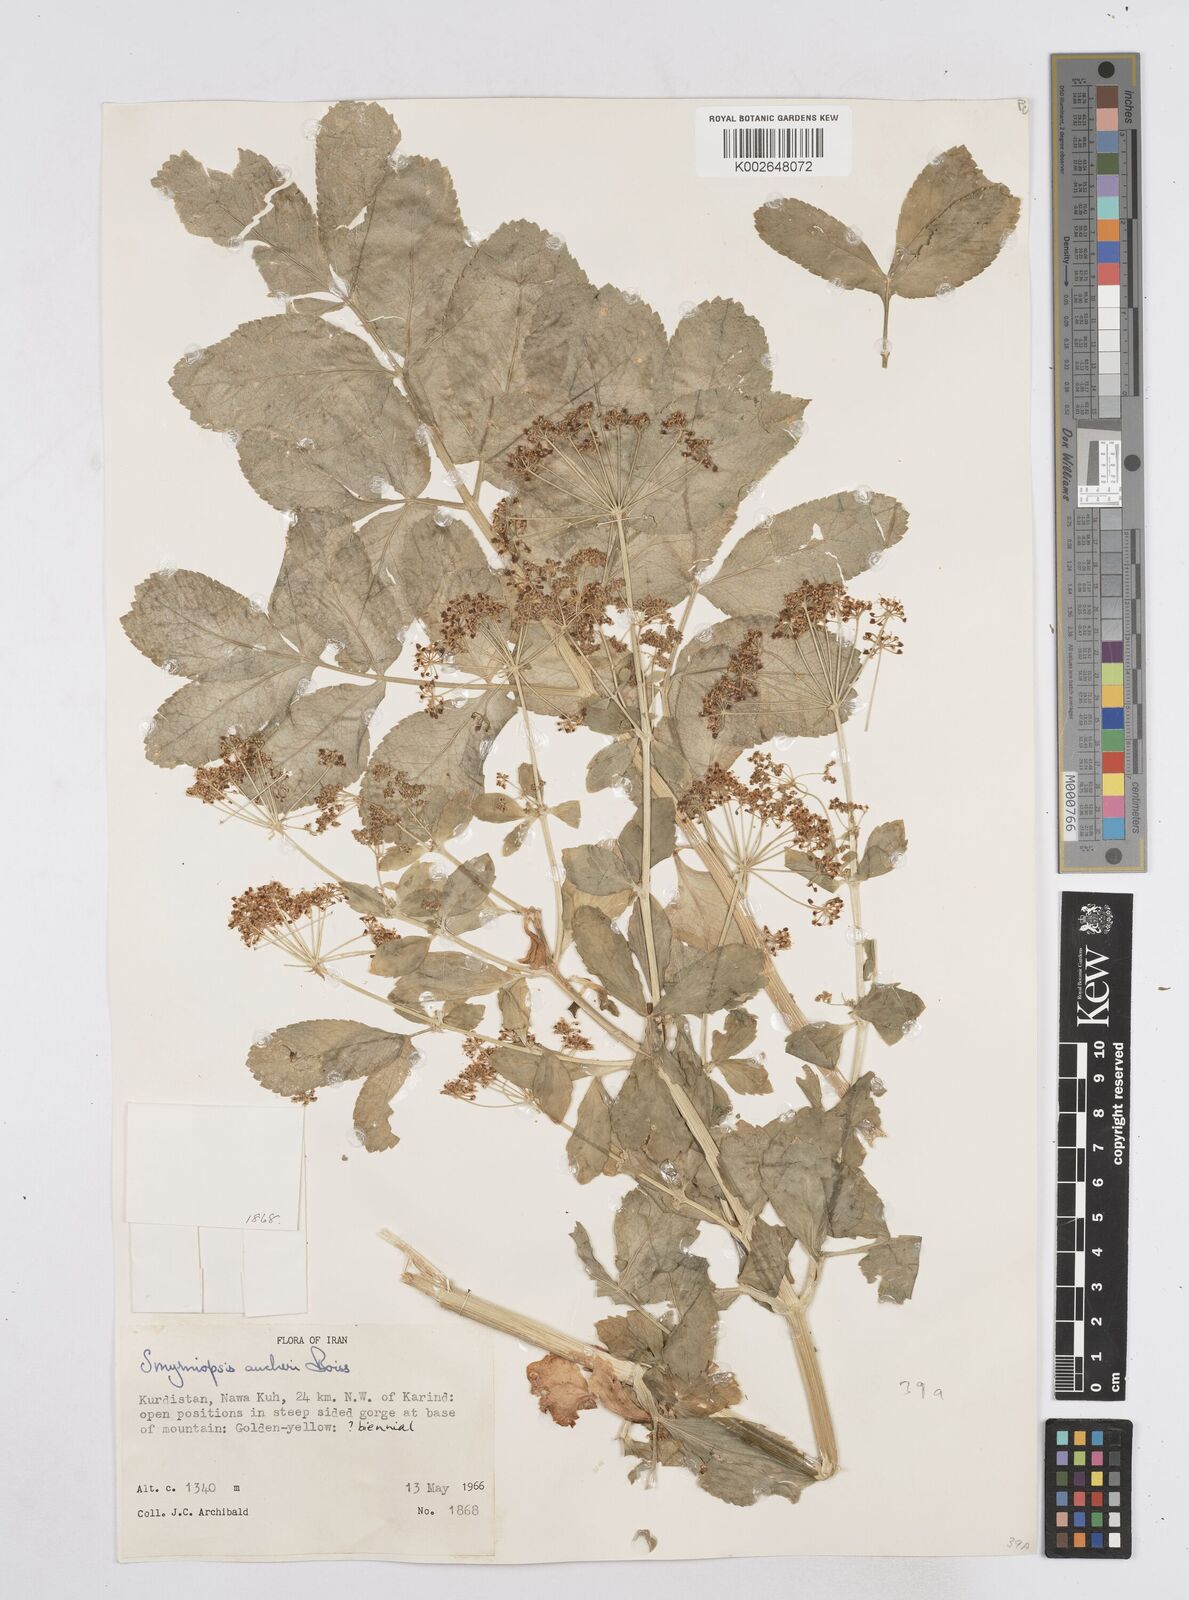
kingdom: Plantae
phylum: Tracheophyta
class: Magnoliopsida
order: Apiales
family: Apiaceae
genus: Smyrniopsis
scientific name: Smyrniopsis aucheri
